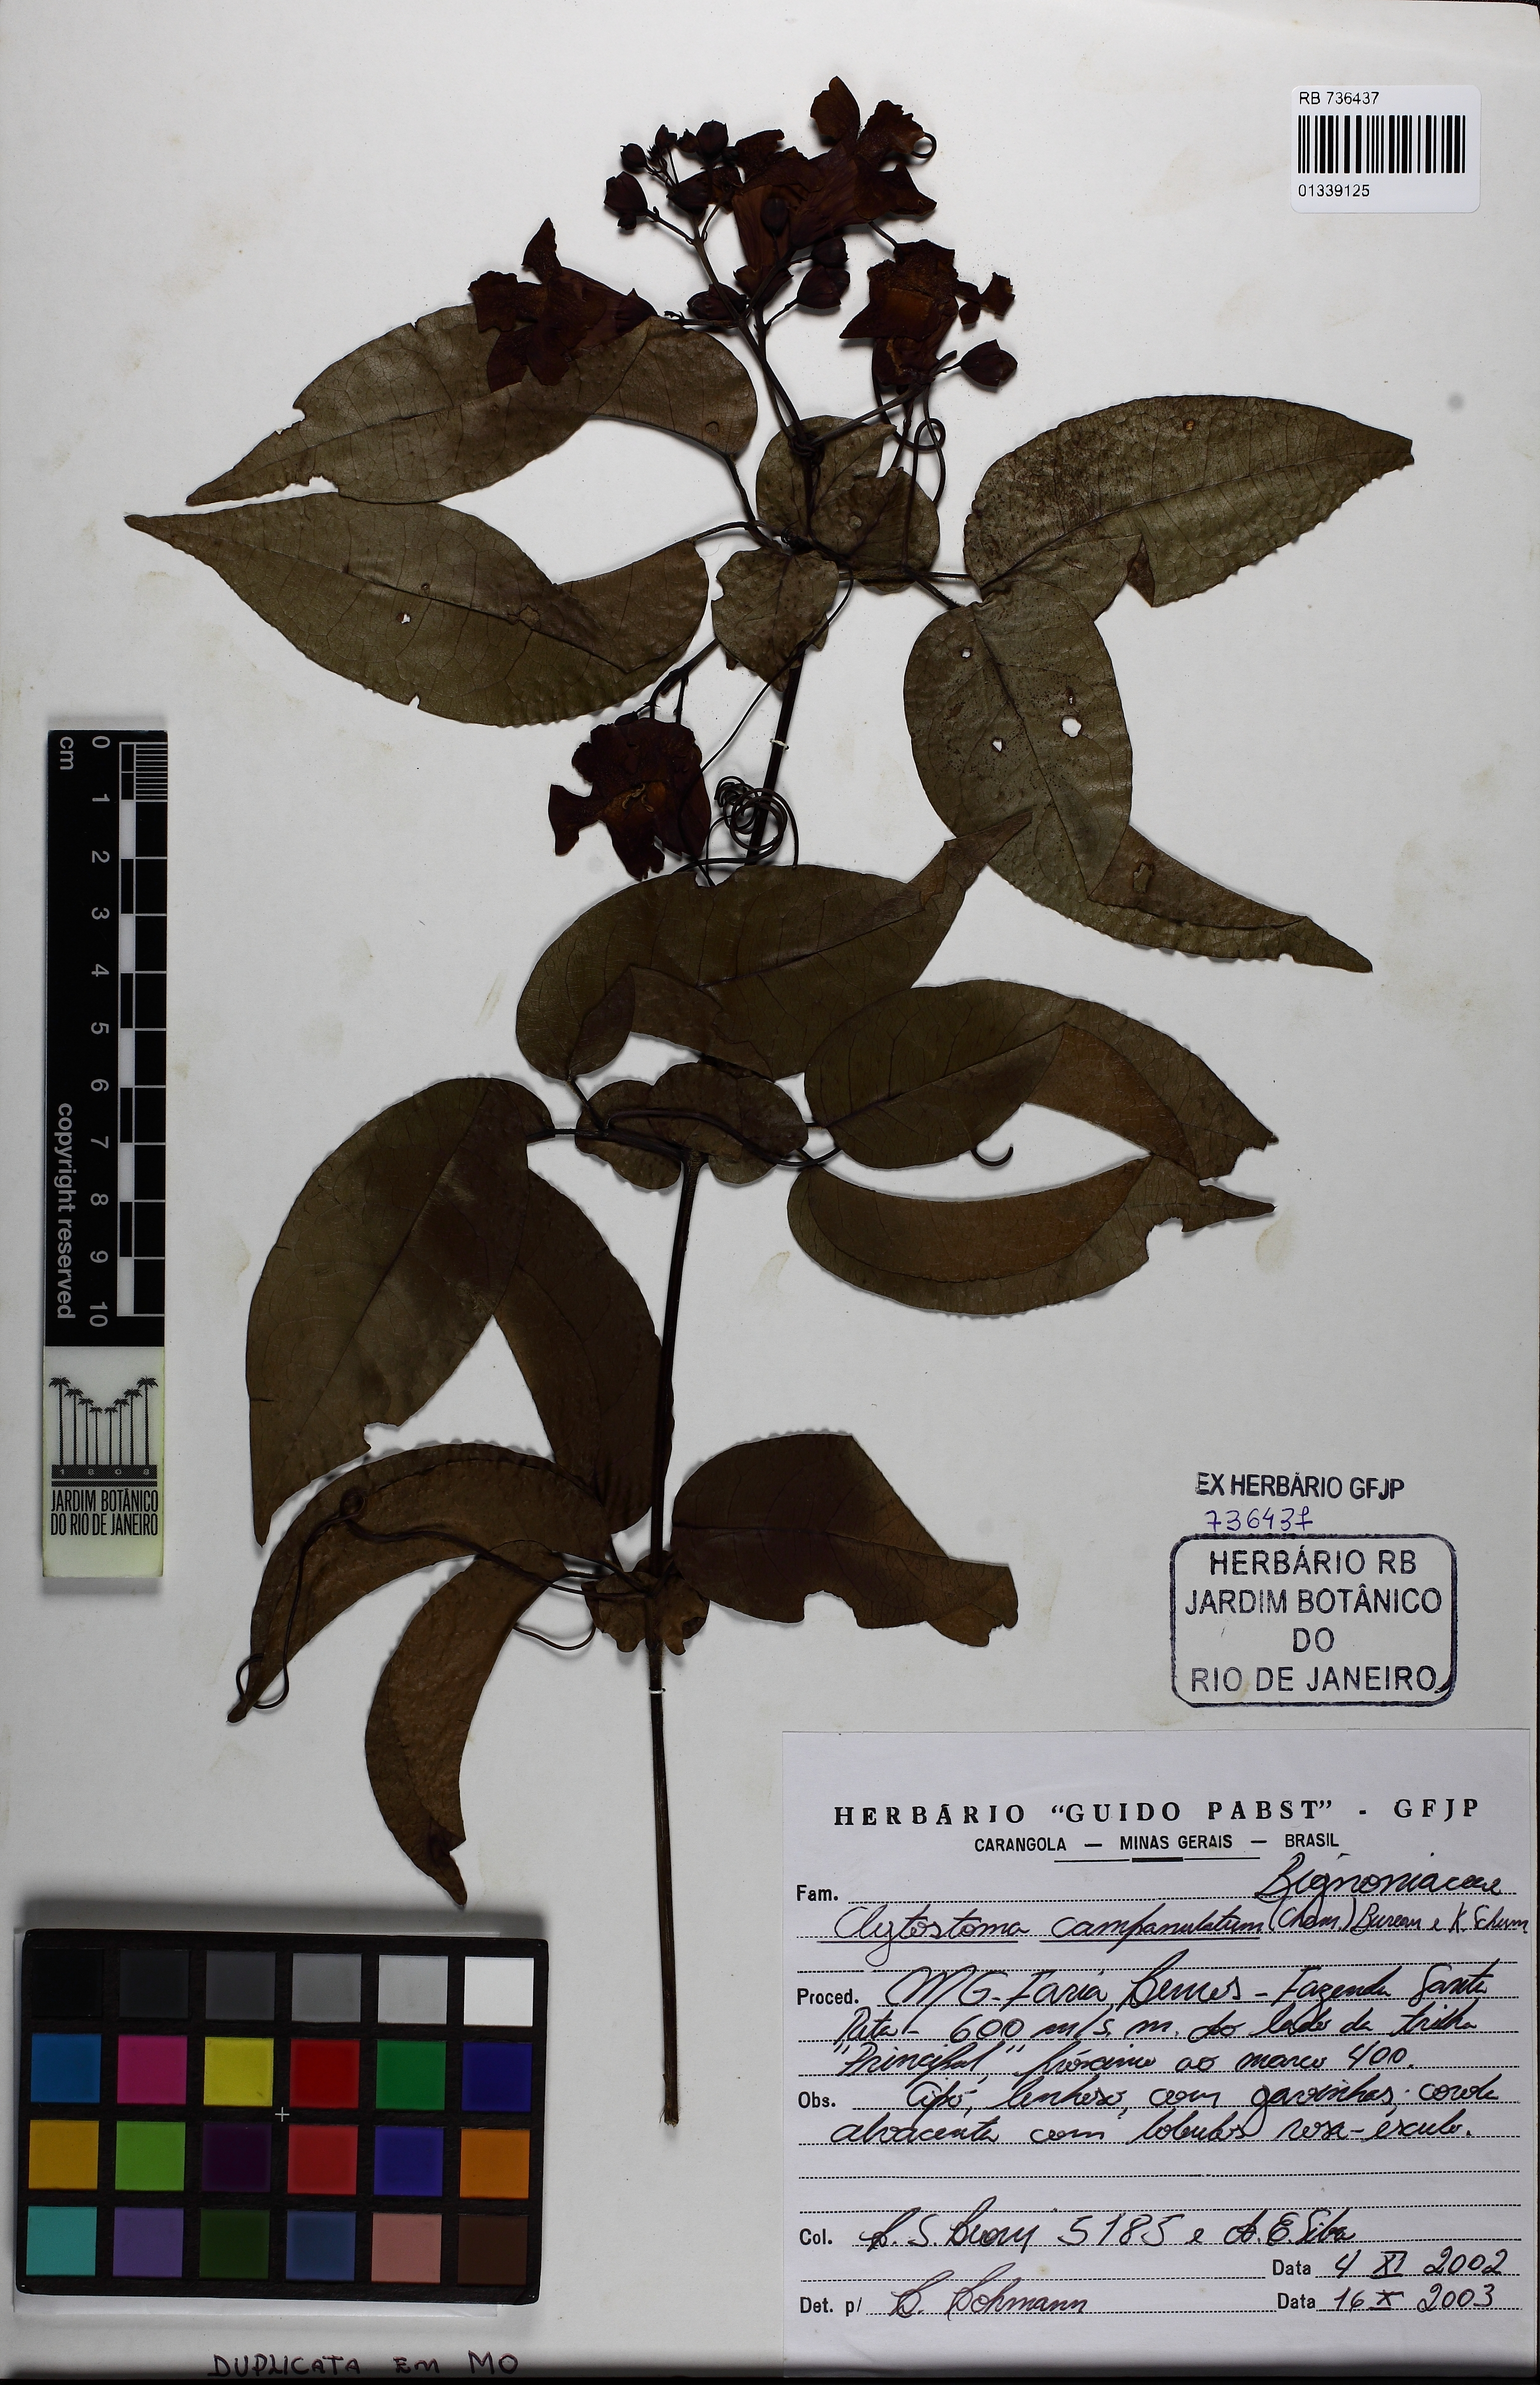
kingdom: Plantae
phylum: Tracheophyta
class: Magnoliopsida
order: Lamiales
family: Bignoniaceae
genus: Bignonia
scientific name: Bignonia campanulata
